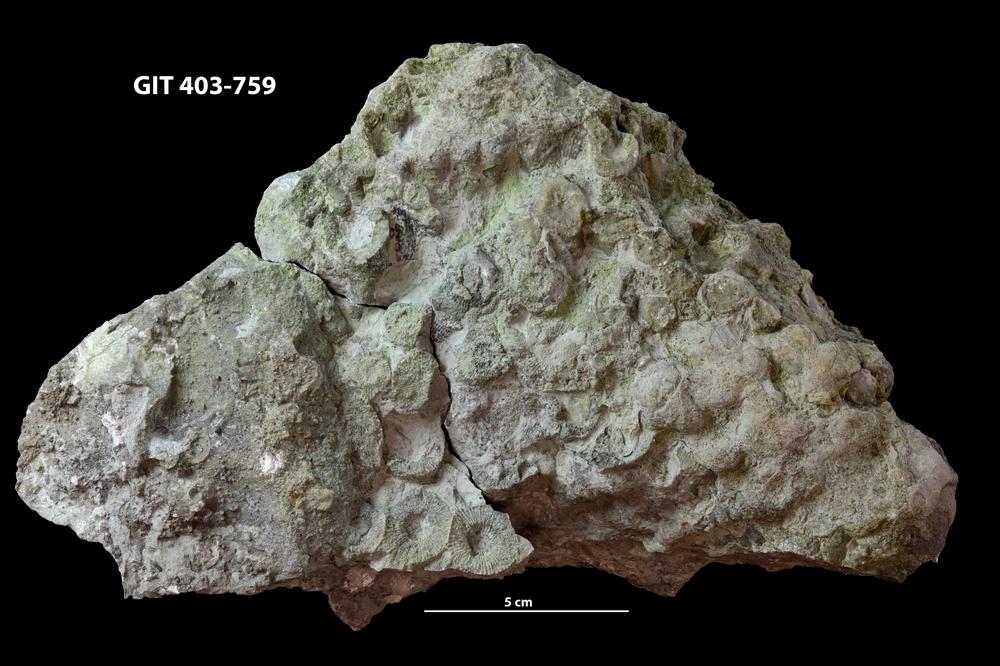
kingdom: Animalia
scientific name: Animalia
